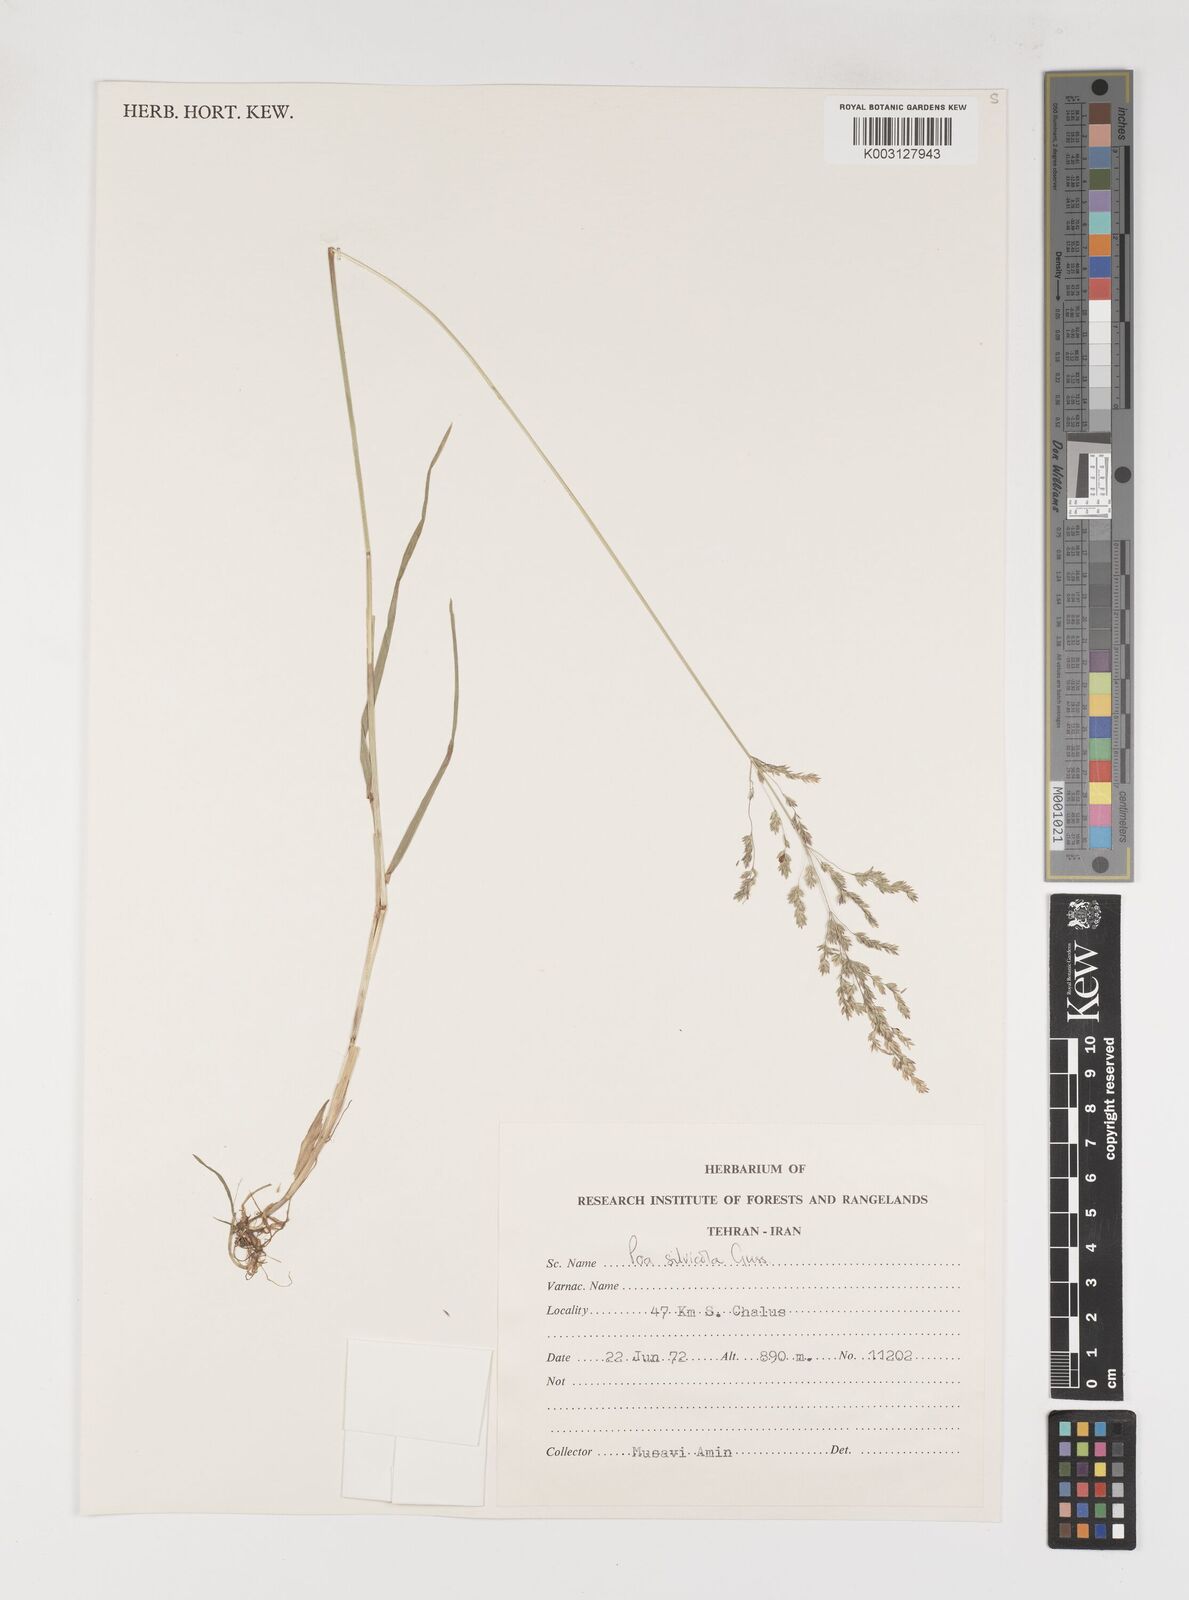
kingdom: Plantae
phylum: Tracheophyta
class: Liliopsida
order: Poales
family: Poaceae
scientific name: Poaceae
